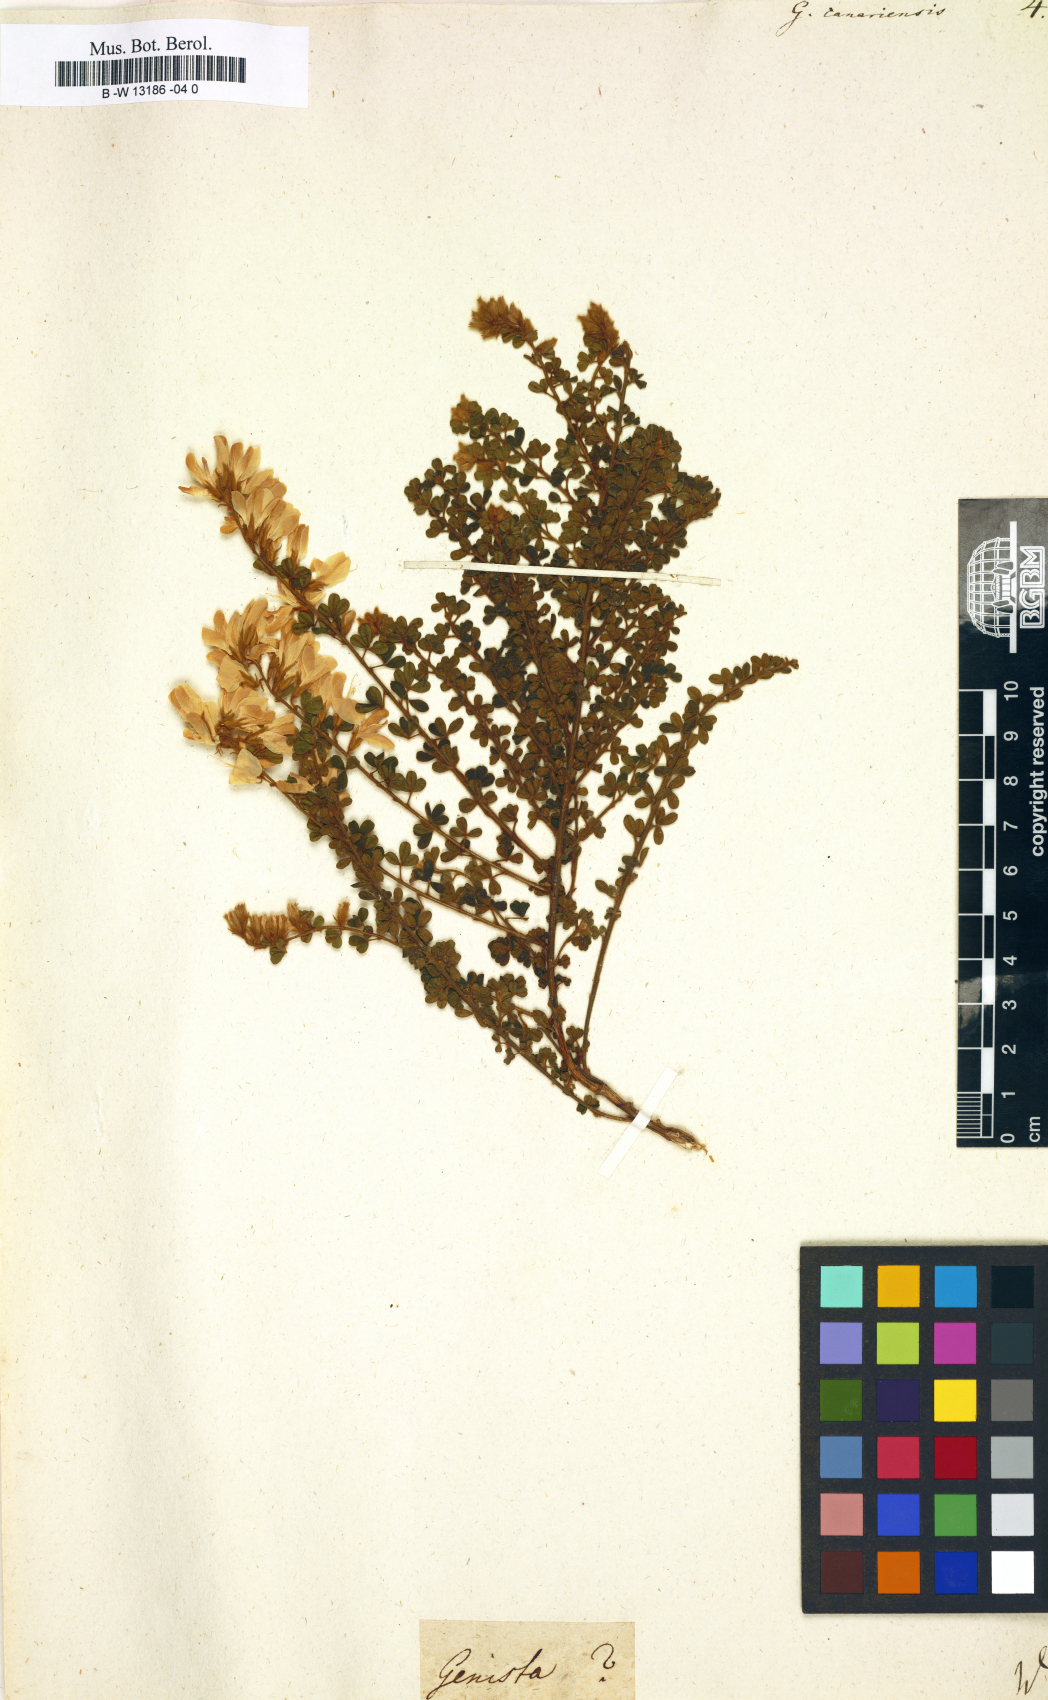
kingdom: Plantae
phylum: Tracheophyta
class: Magnoliopsida
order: Fabales
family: Fabaceae
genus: Genista
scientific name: Genista canariensis
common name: Canary broom
